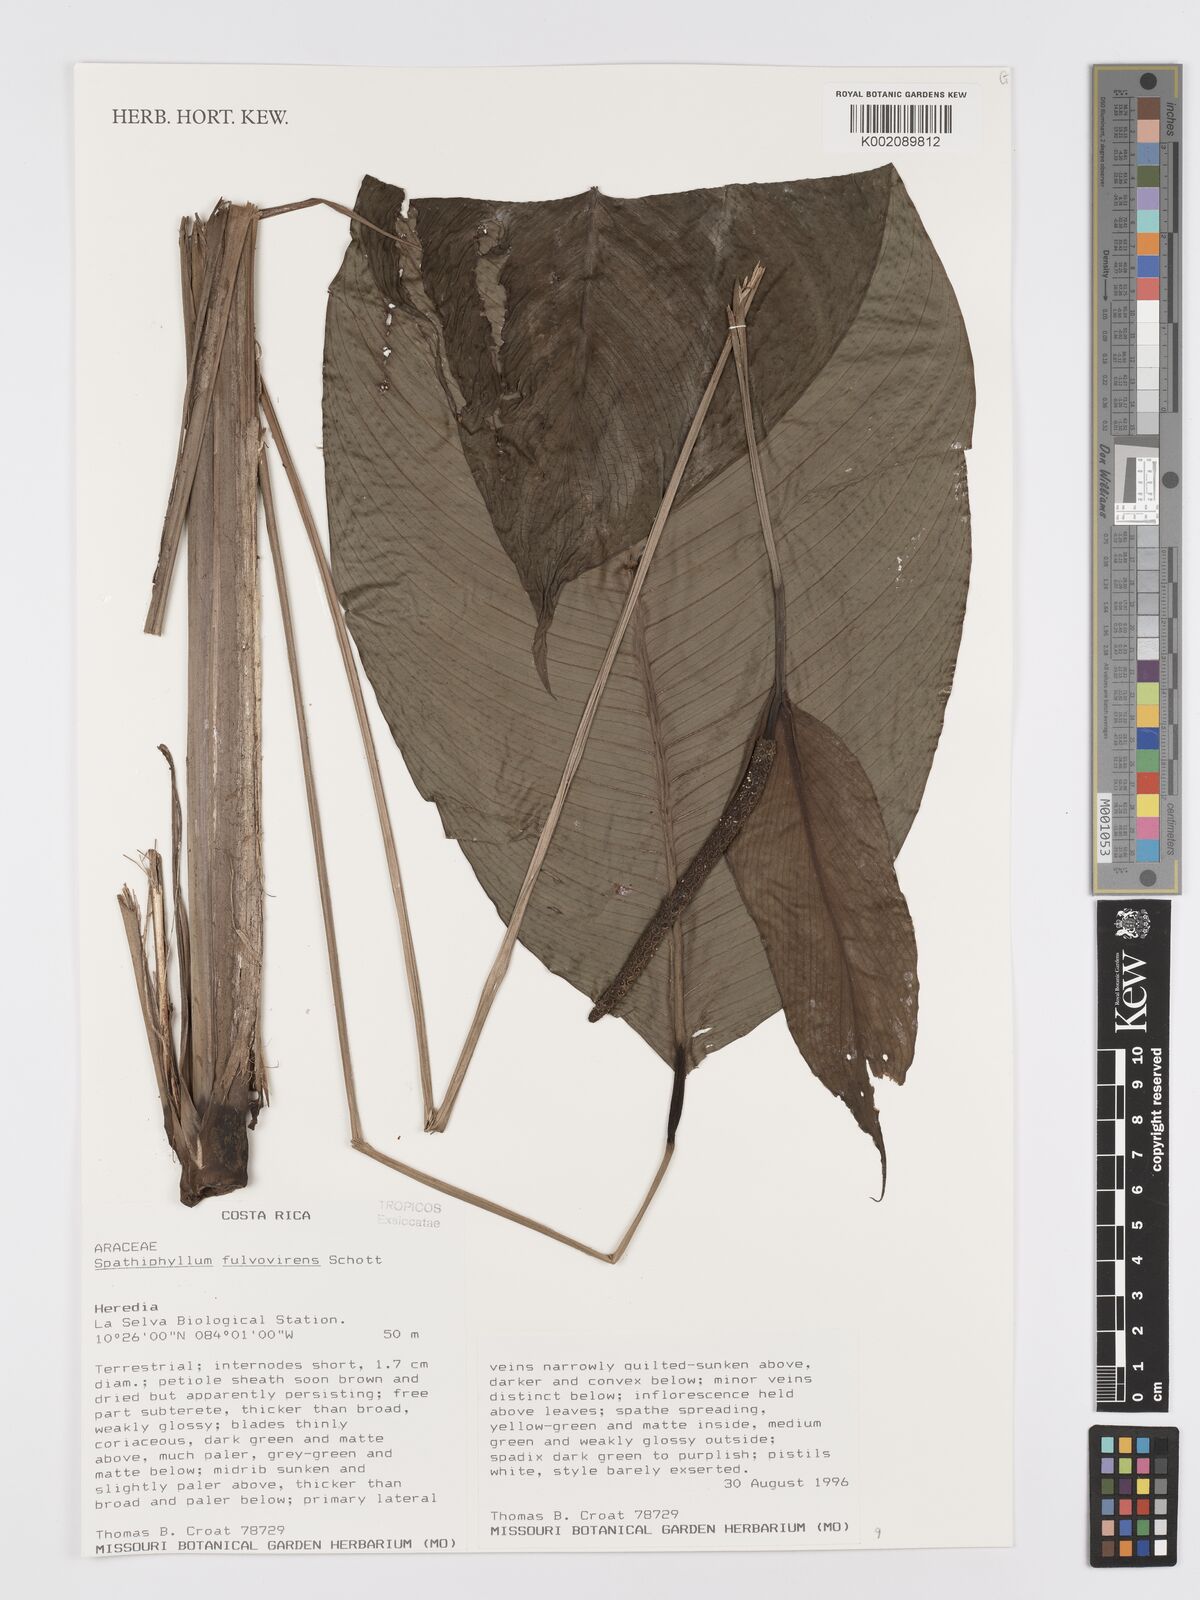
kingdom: Plantae
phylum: Tracheophyta
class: Liliopsida
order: Alismatales
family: Araceae
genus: Spathiphyllum
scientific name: Spathiphyllum fulvovirens
